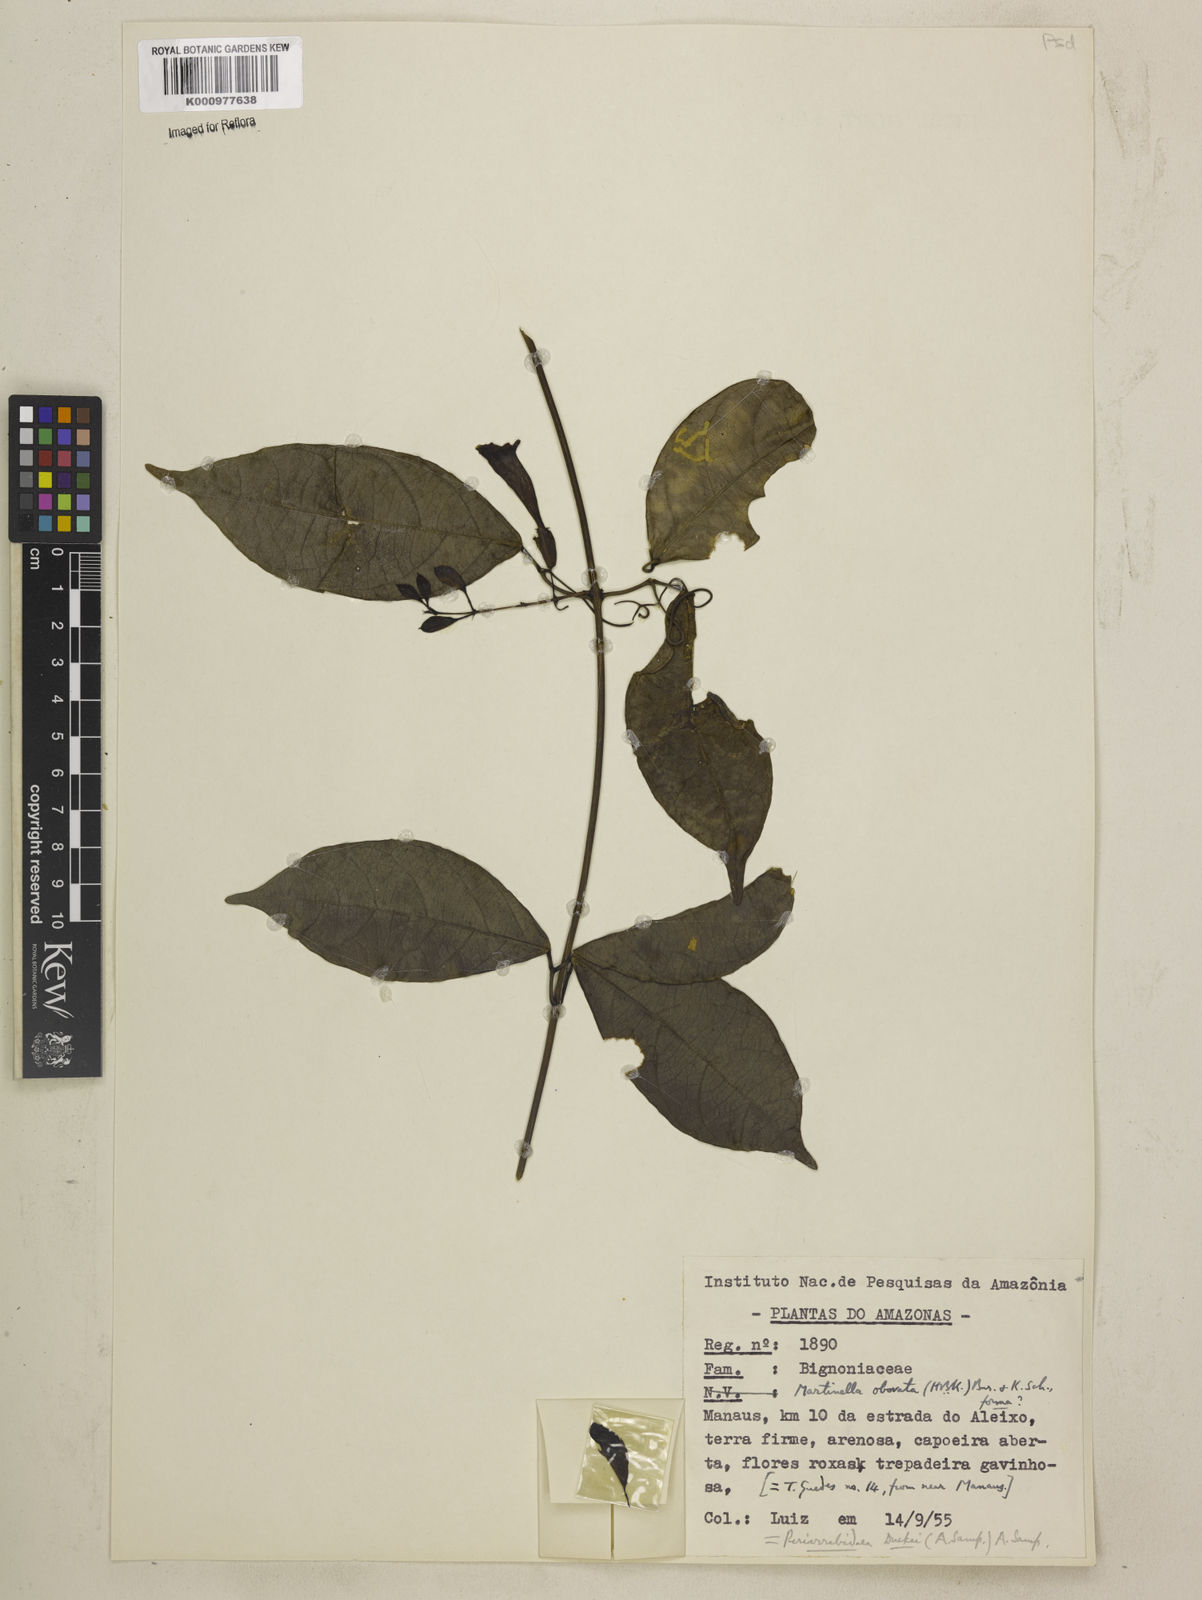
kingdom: Animalia
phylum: Arthropoda
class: Insecta
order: Coleoptera
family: Chrysomelidae
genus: Martinella
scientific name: Martinella obovata
